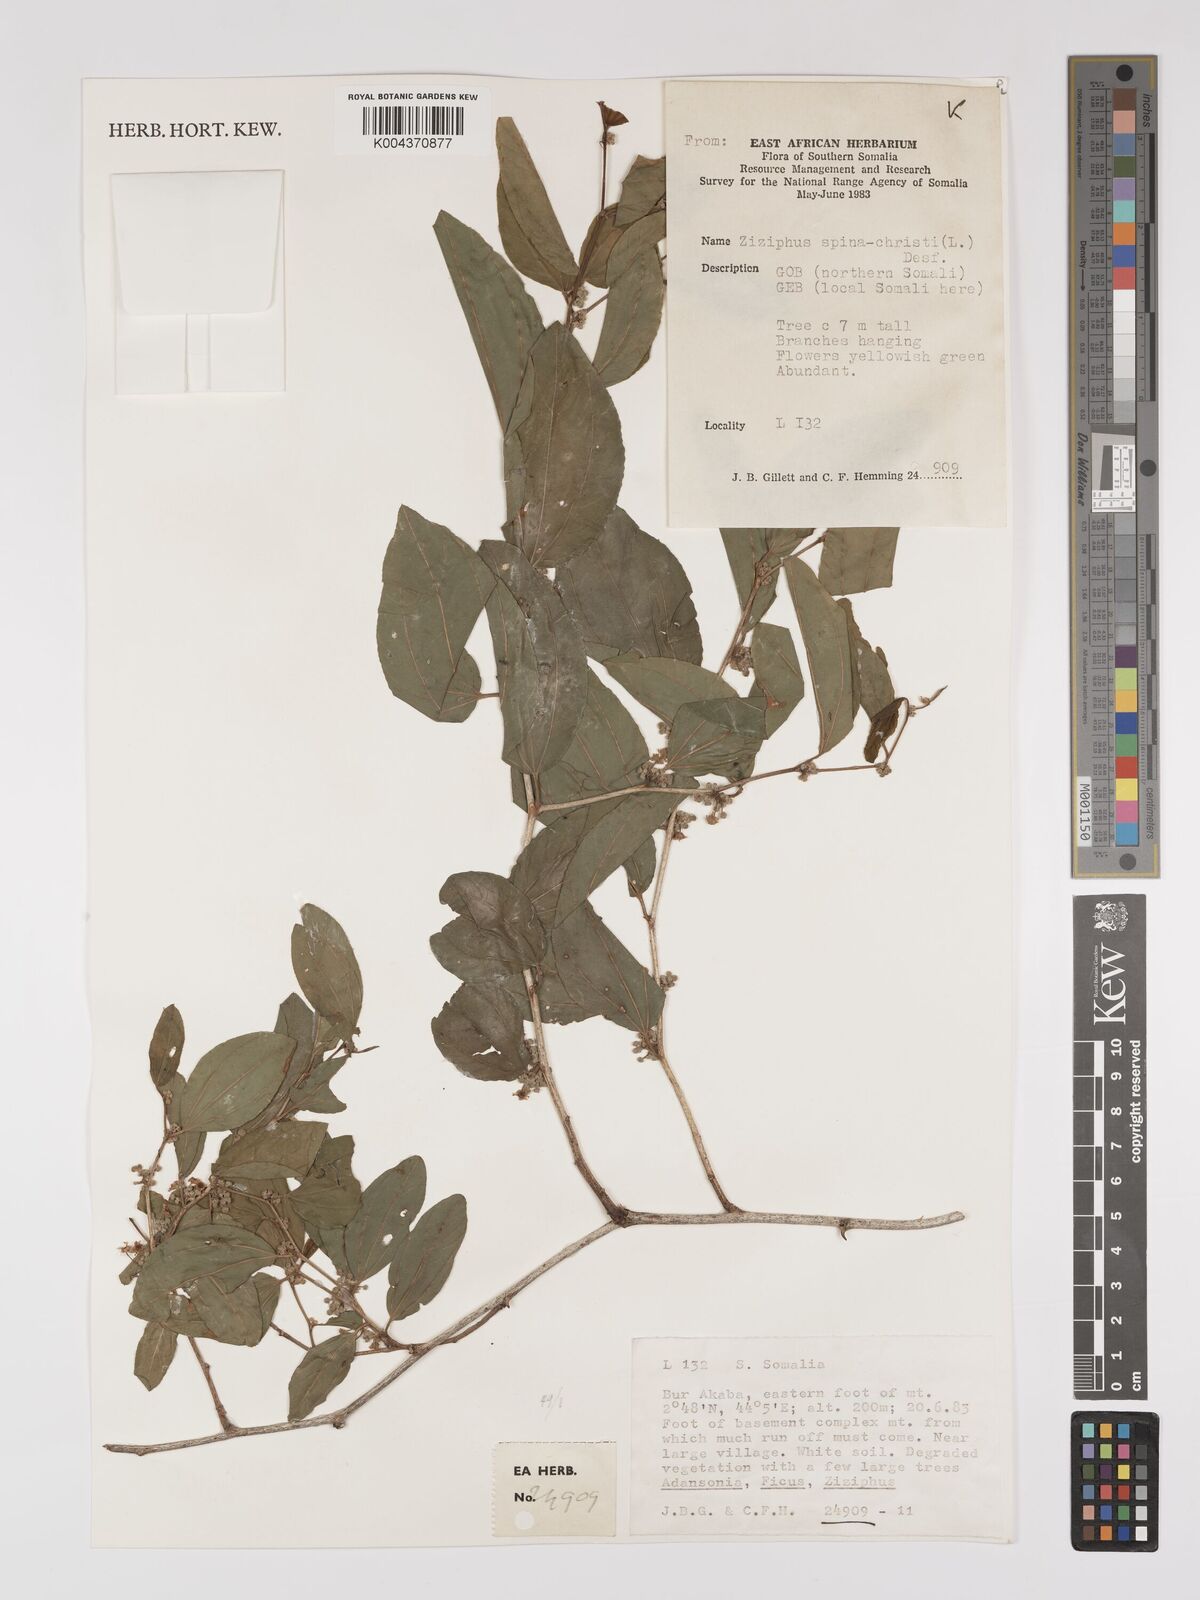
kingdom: Plantae
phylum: Tracheophyta
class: Magnoliopsida
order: Rosales
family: Rhamnaceae
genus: Ziziphus
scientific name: Ziziphus spina-christi
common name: Syrian christ-thorn
